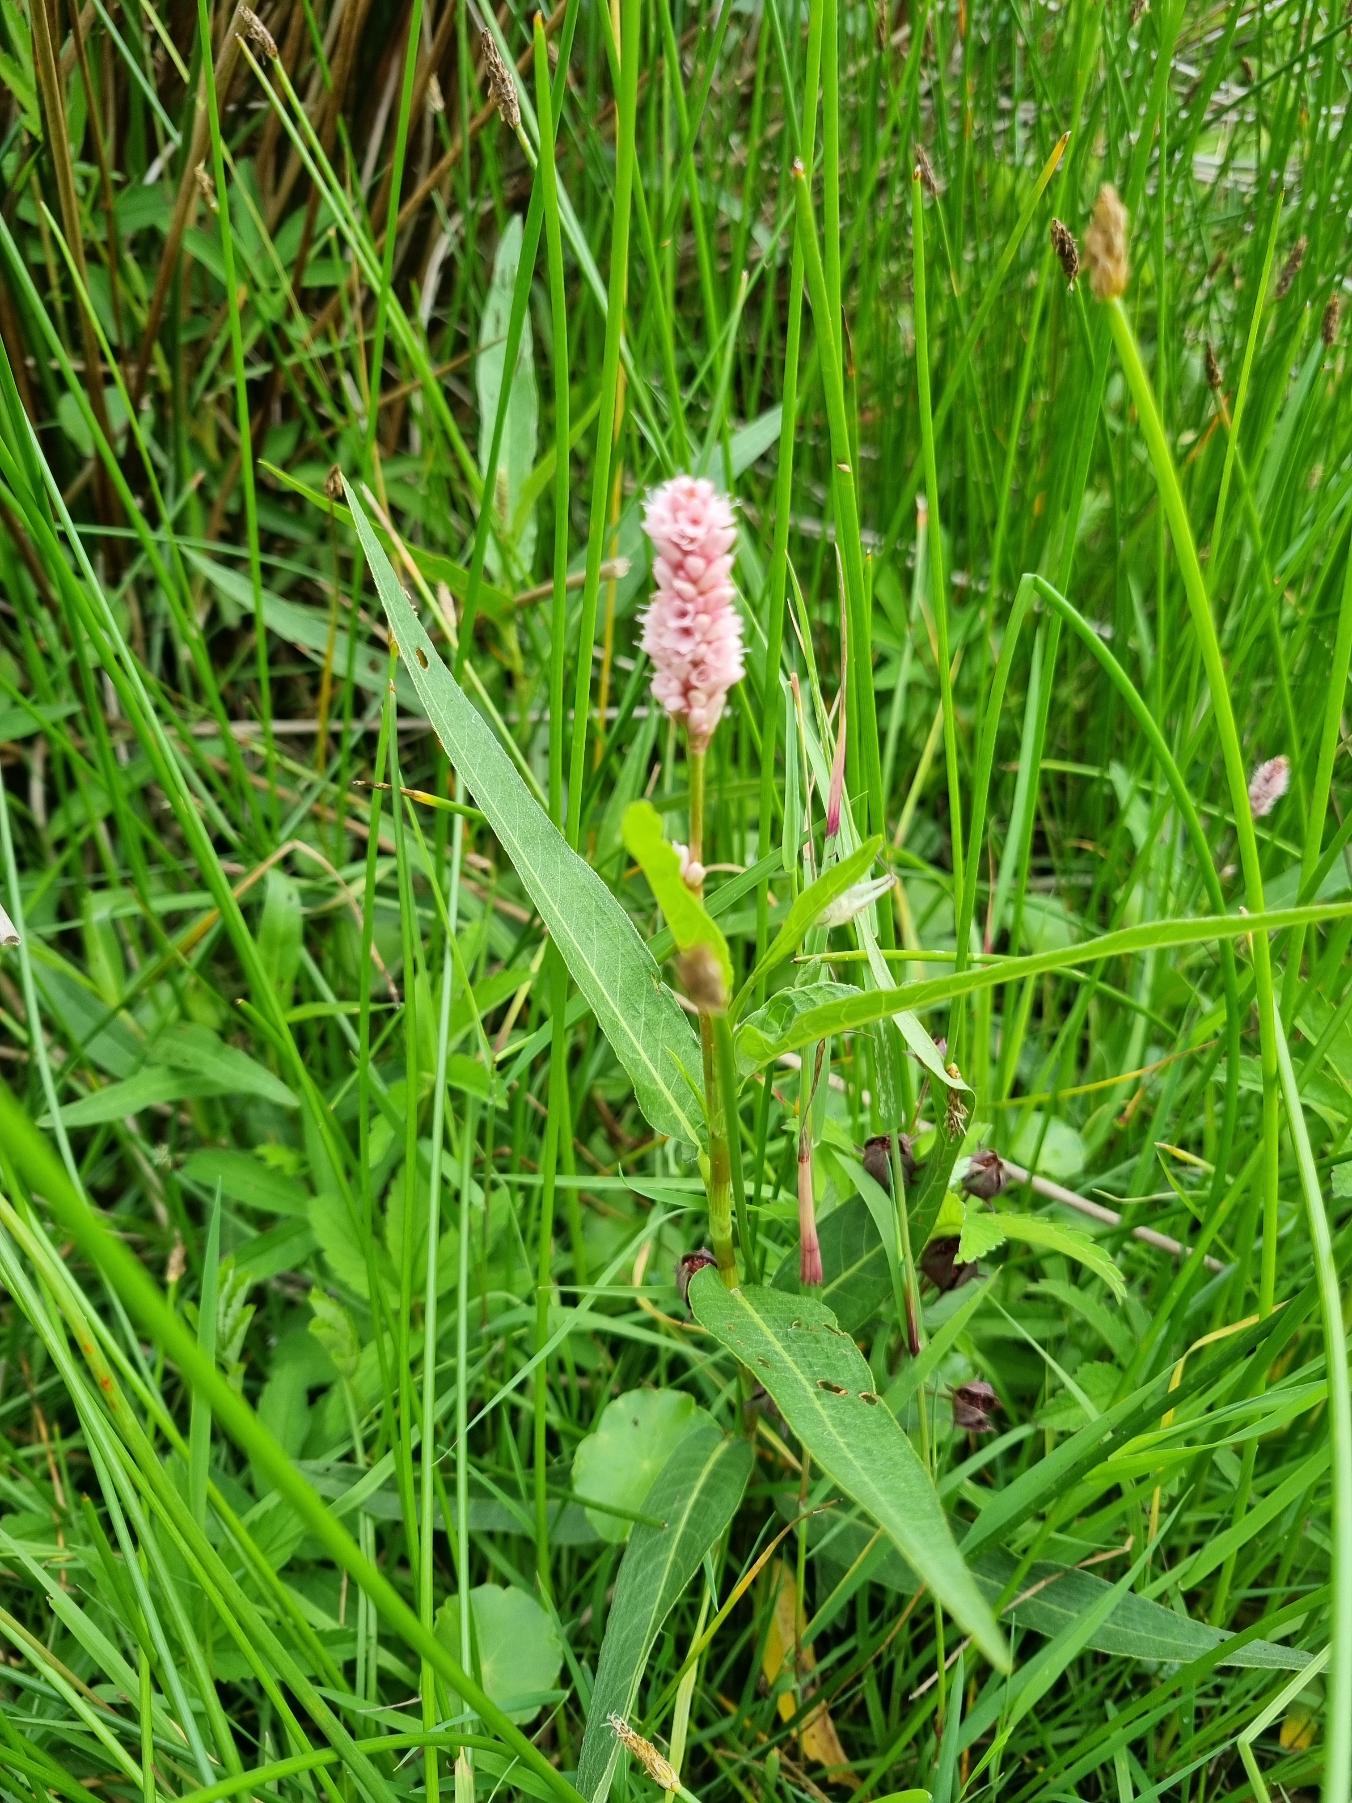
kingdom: Plantae
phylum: Tracheophyta
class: Magnoliopsida
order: Caryophyllales
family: Polygonaceae
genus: Persicaria
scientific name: Persicaria amphibia
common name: Vand-pileurt
